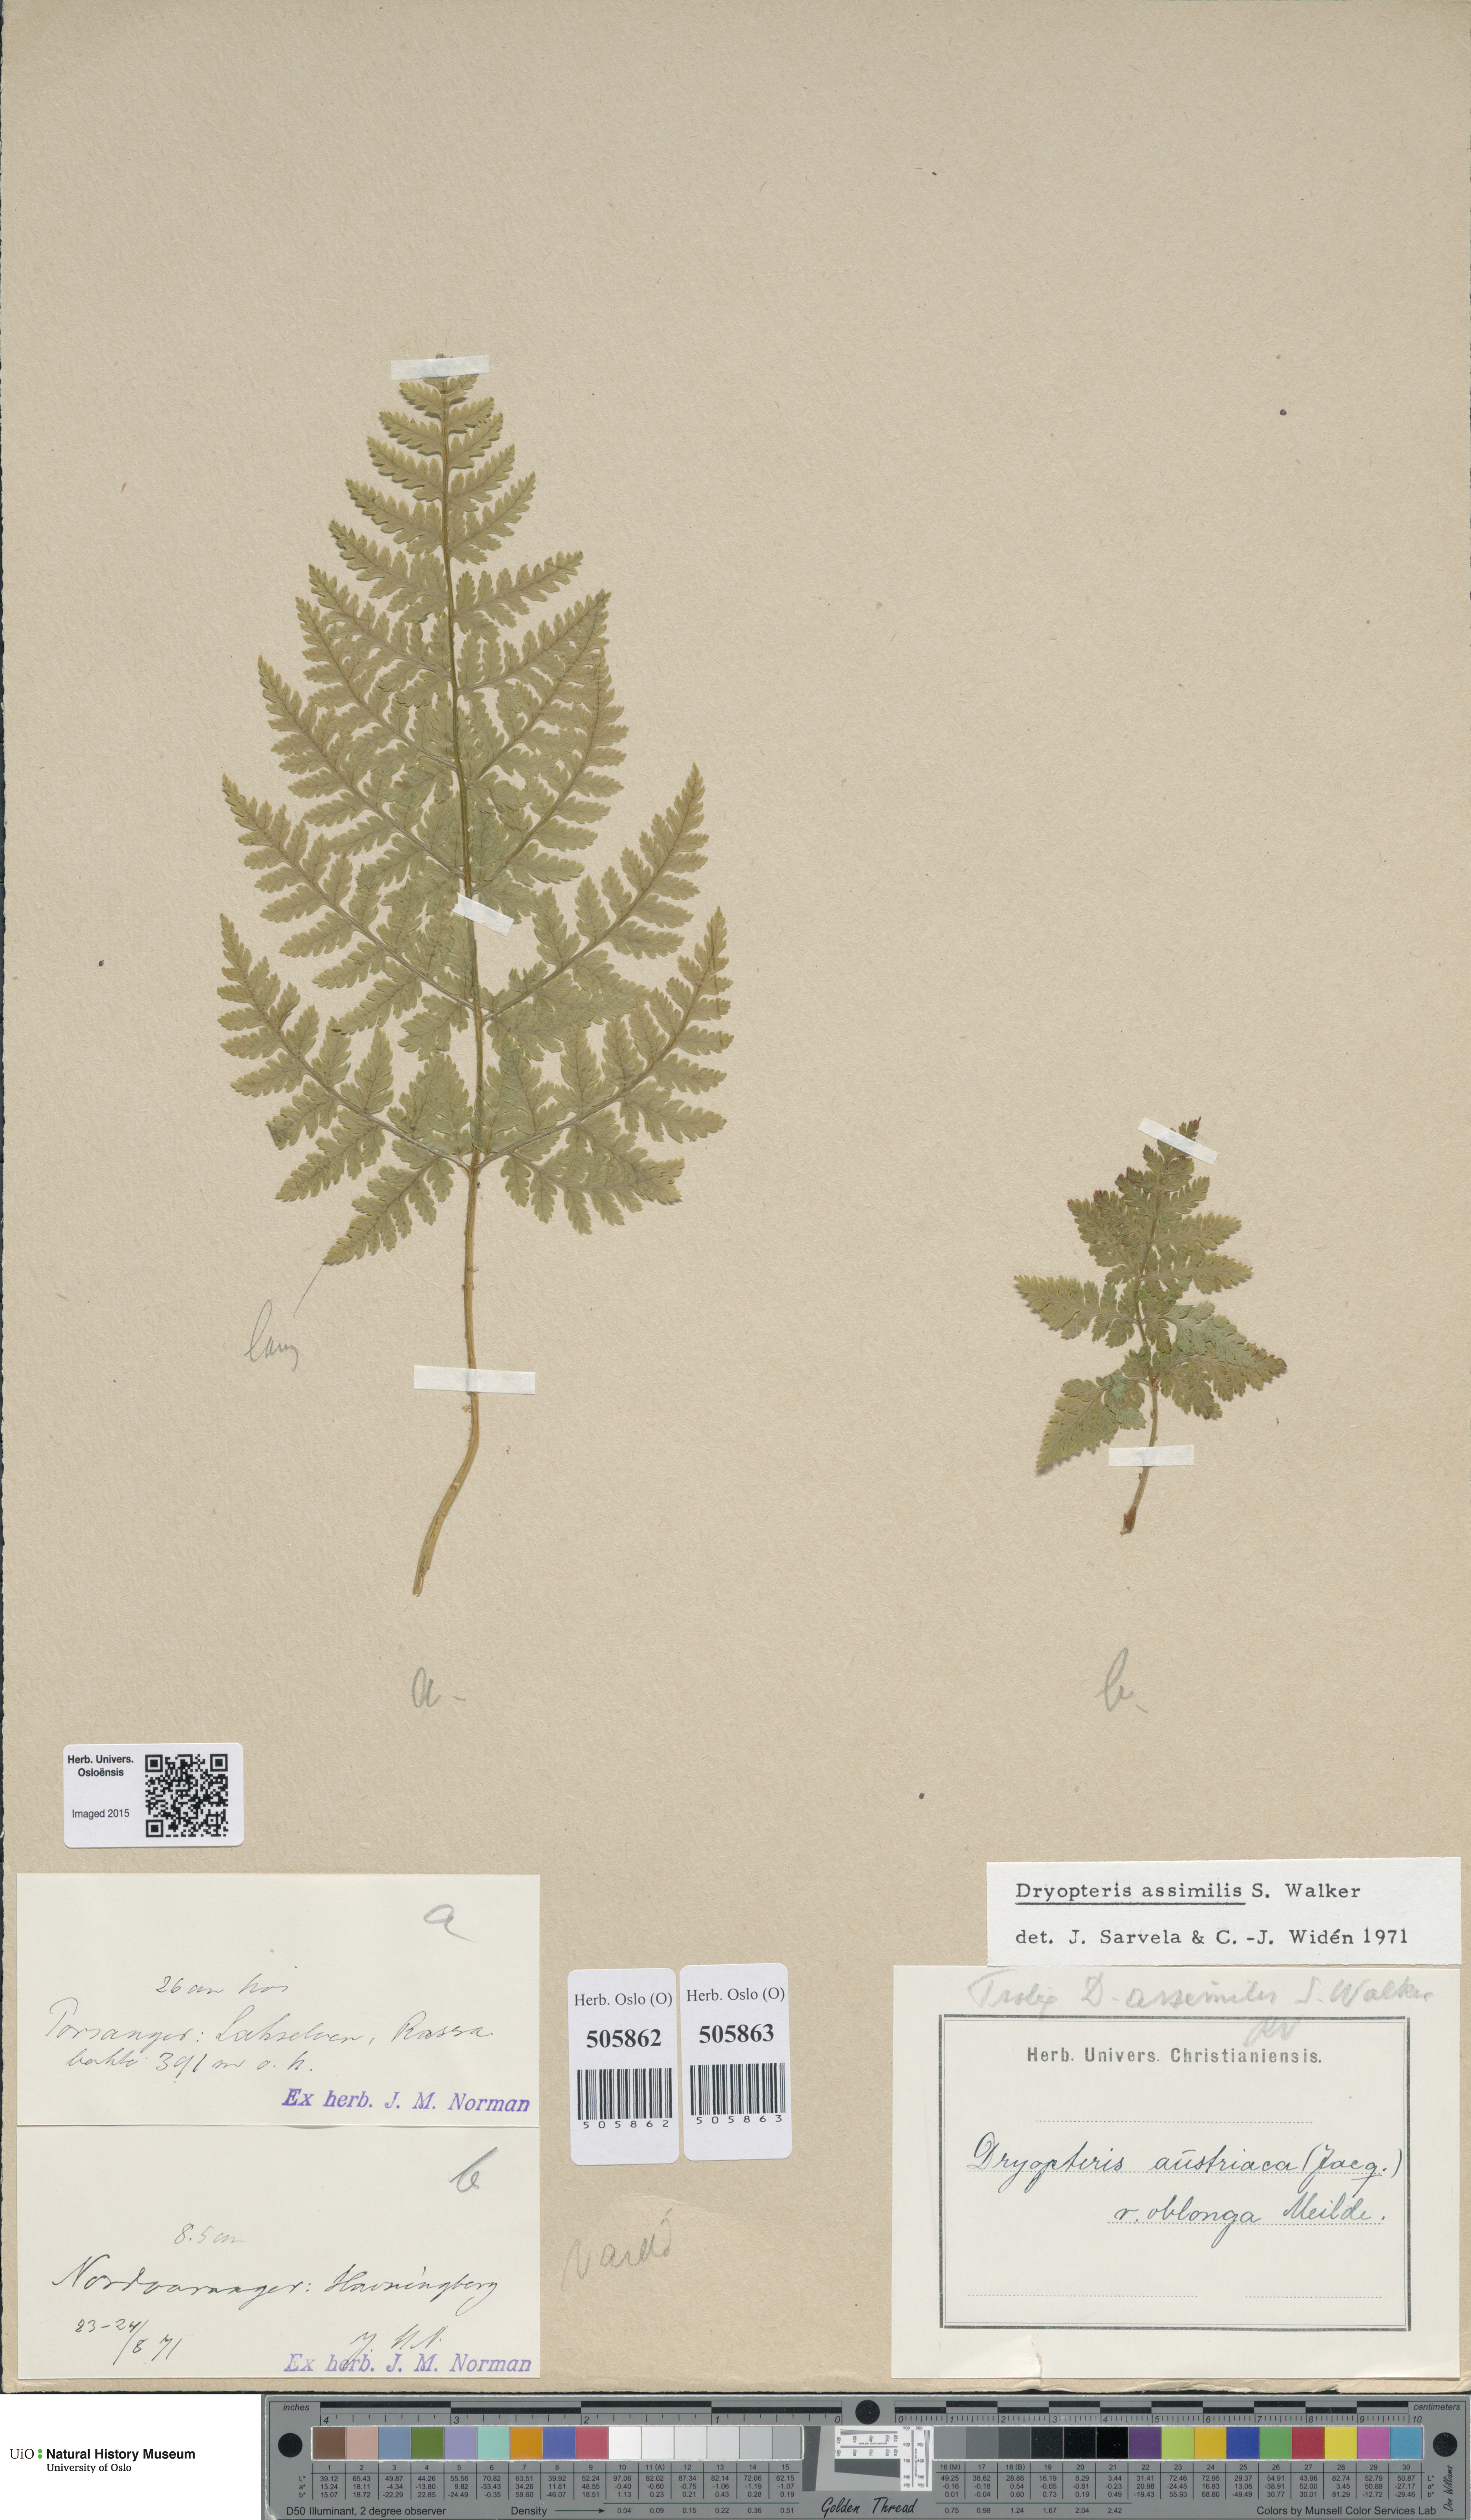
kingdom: Plantae
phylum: Tracheophyta
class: Polypodiopsida
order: Polypodiales
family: Dryopteridaceae
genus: Dryopteris
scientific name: Dryopteris expansa
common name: Northern buckler fern
